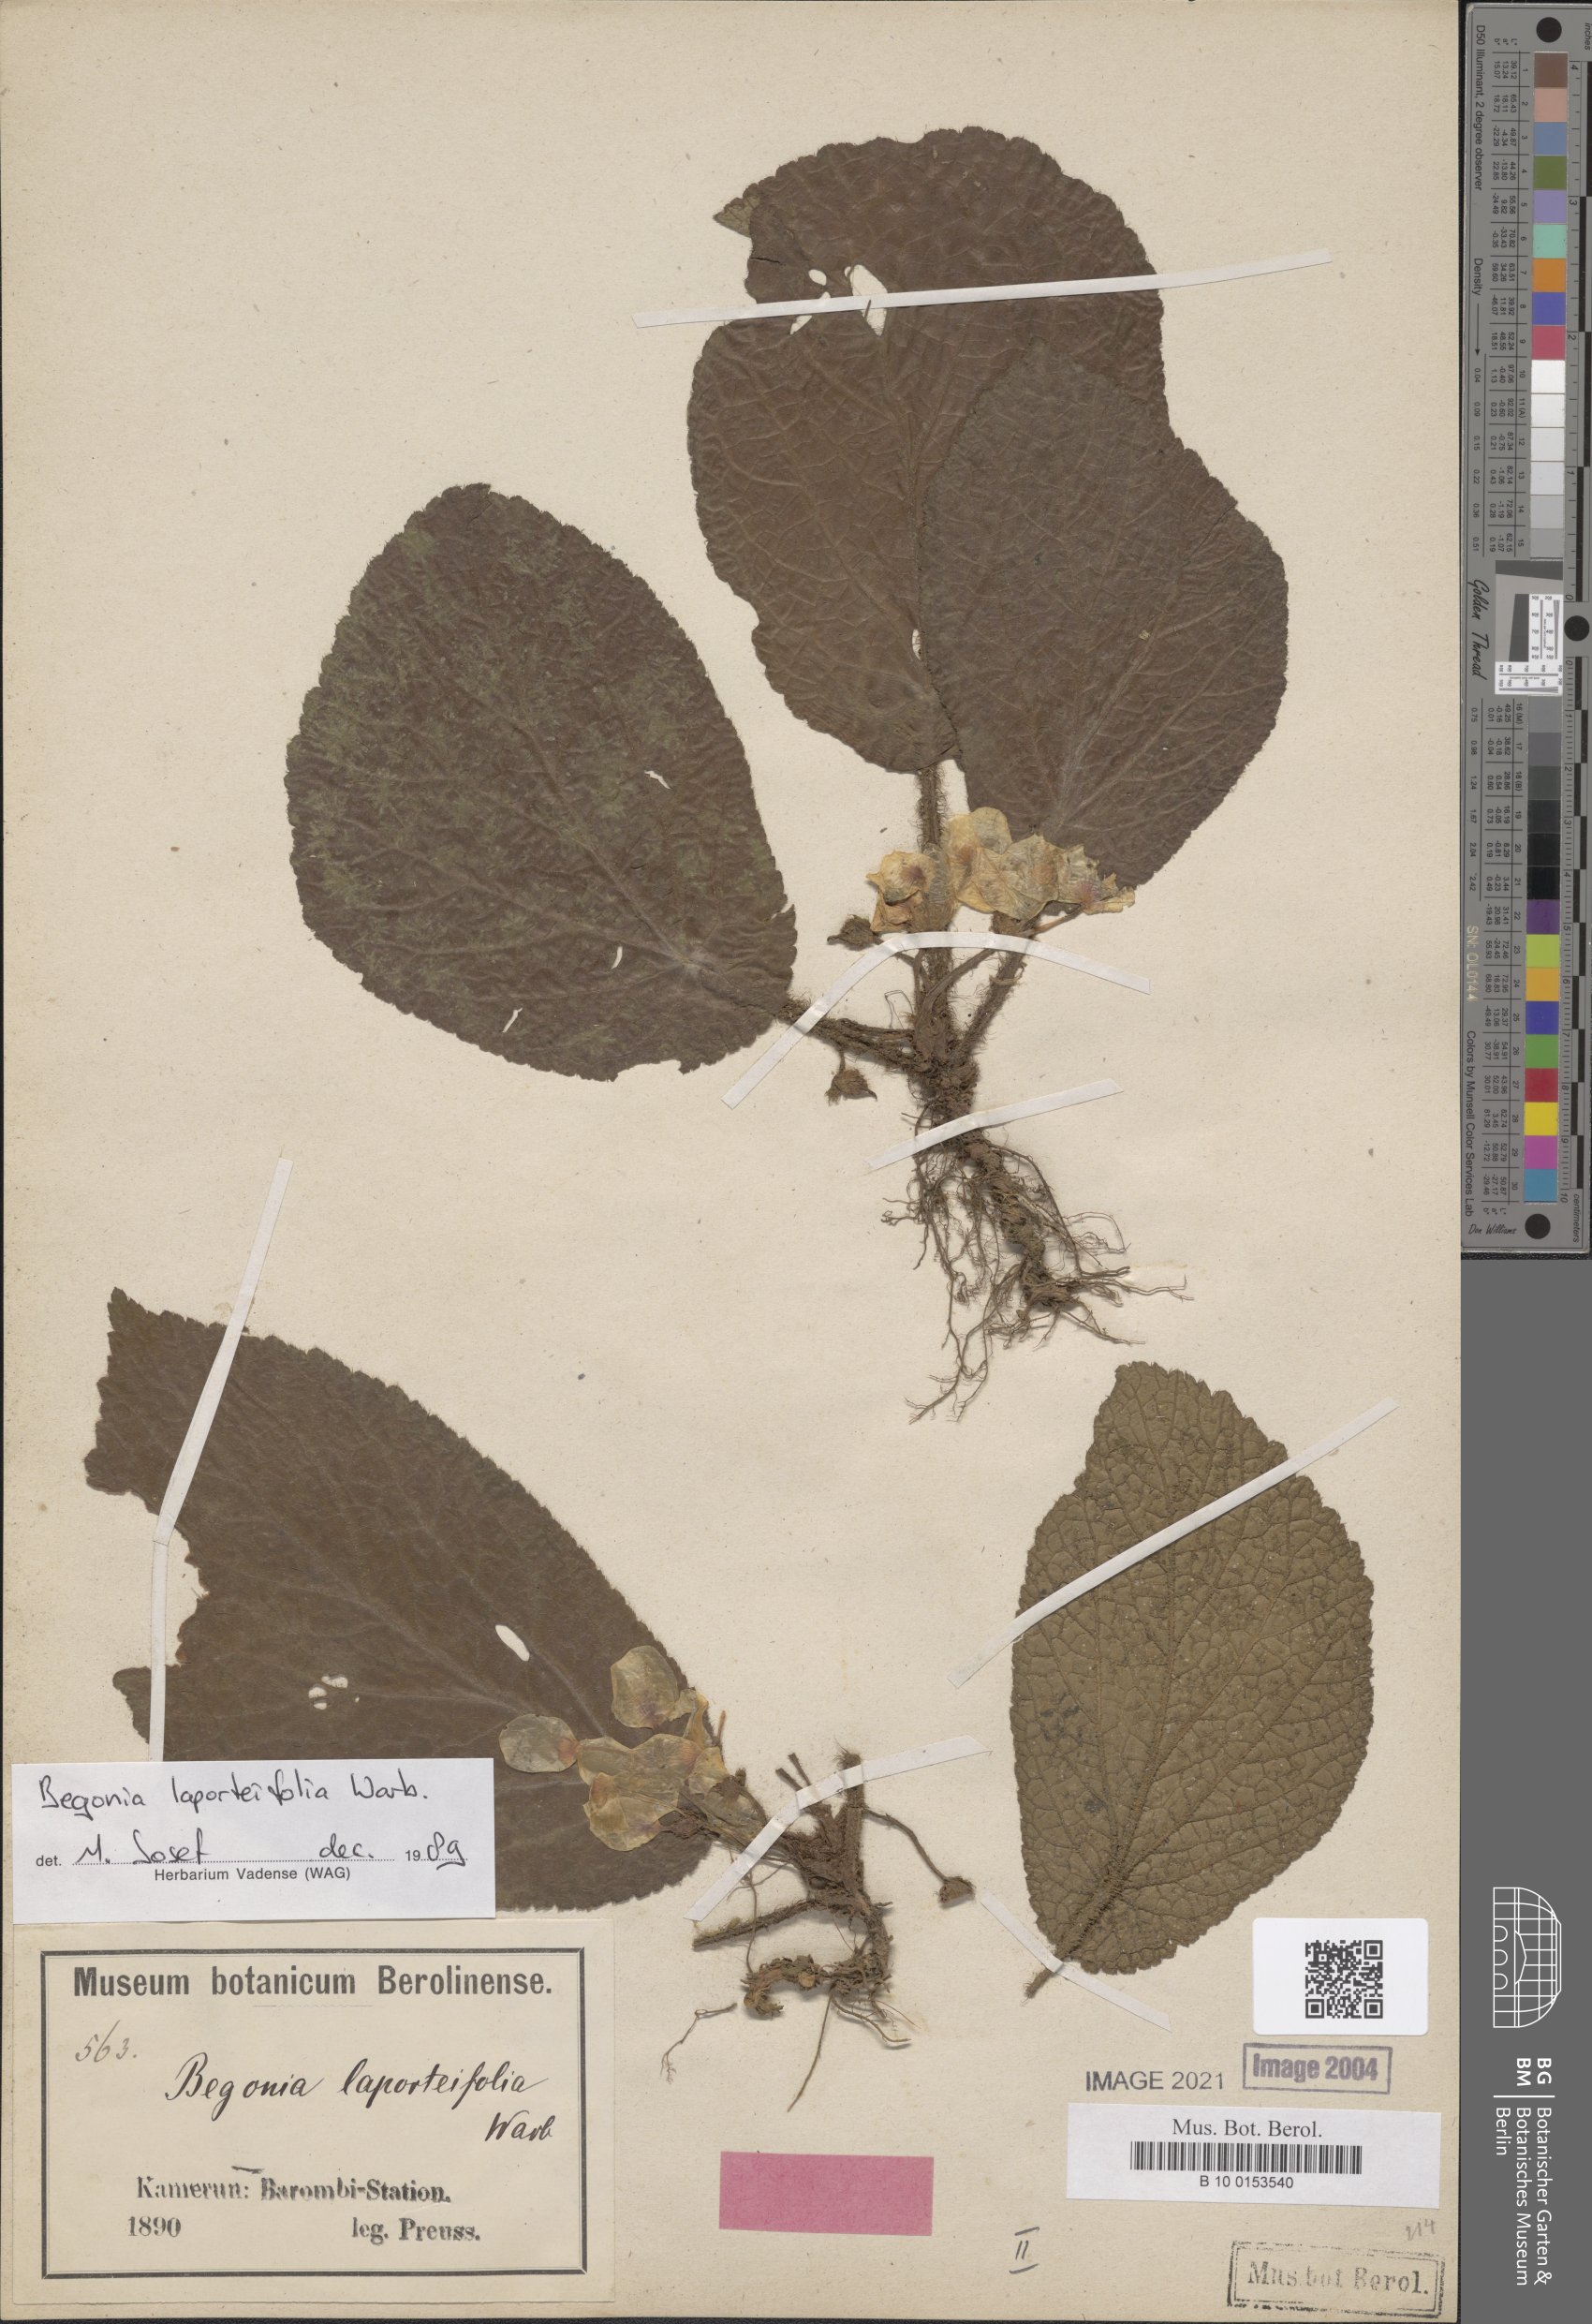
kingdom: Plantae
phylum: Tracheophyta
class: Magnoliopsida
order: Cucurbitales
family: Begoniaceae
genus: Begonia
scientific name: Begonia laporteifolia
